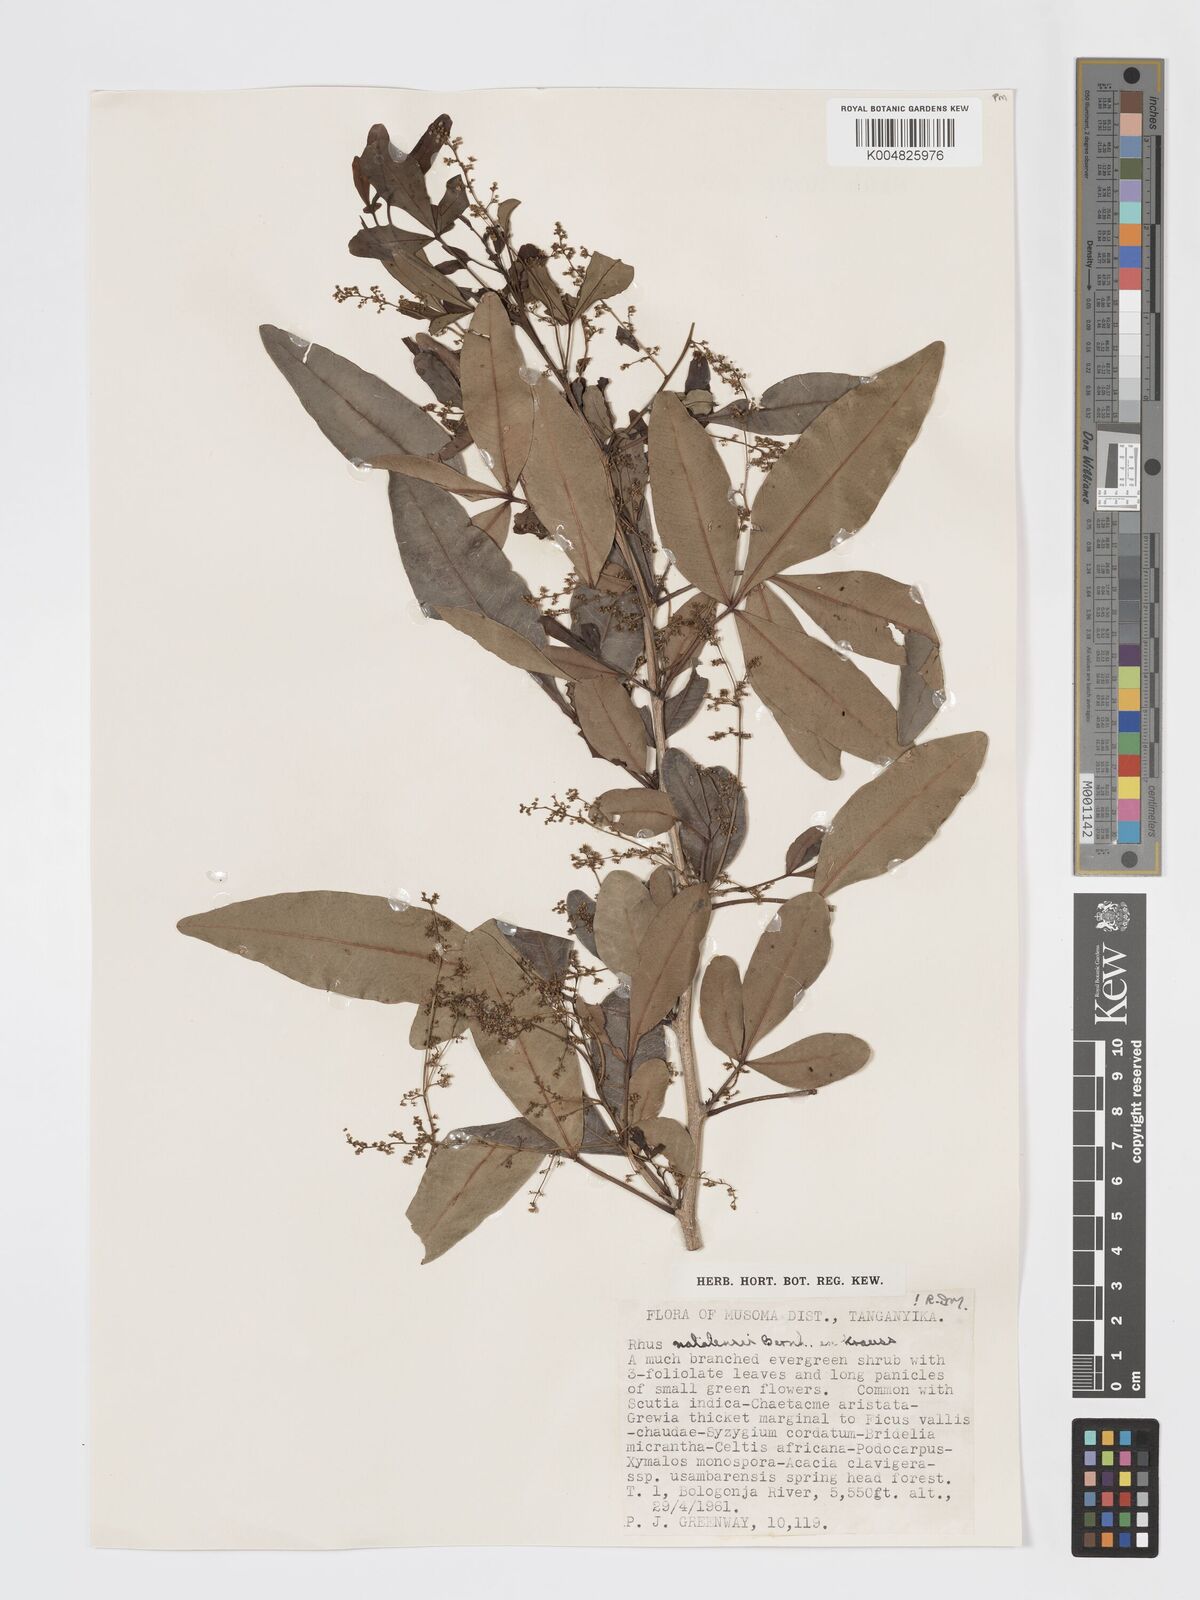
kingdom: Plantae
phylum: Tracheophyta
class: Magnoliopsida
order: Sapindales
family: Anacardiaceae
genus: Searsia
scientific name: Searsia natalensis
